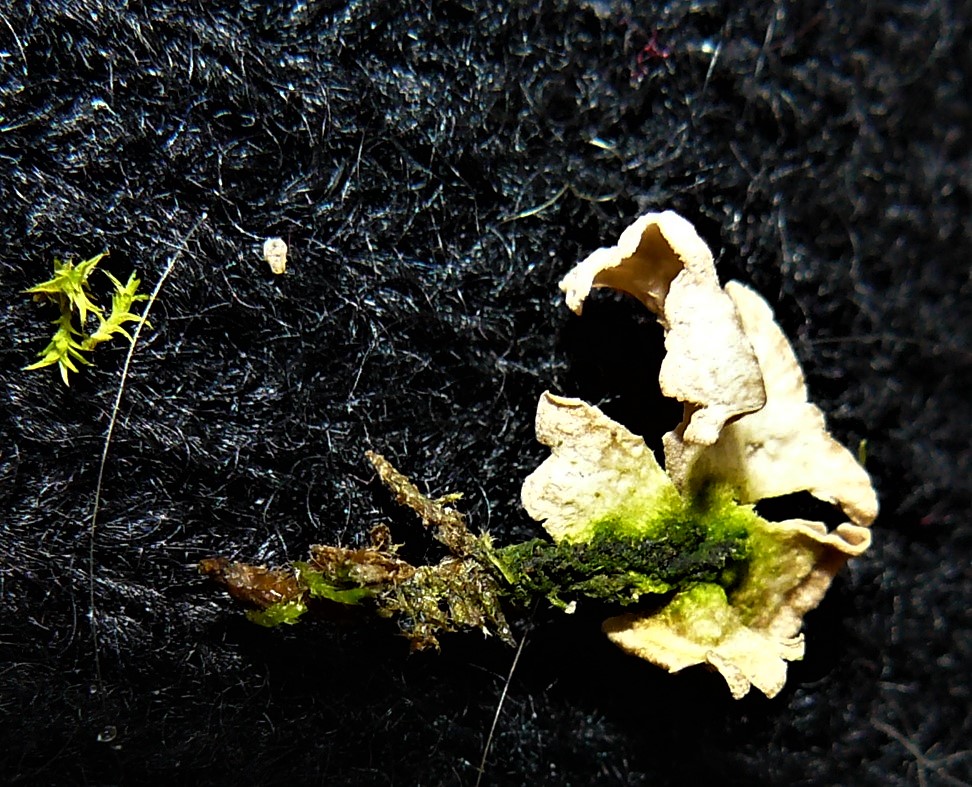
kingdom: Fungi
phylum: Basidiomycota
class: Agaricomycetes
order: Agaricales
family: Hygrophoraceae
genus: Arrhenia
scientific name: Arrhenia retiruga
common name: lille fontænehat
